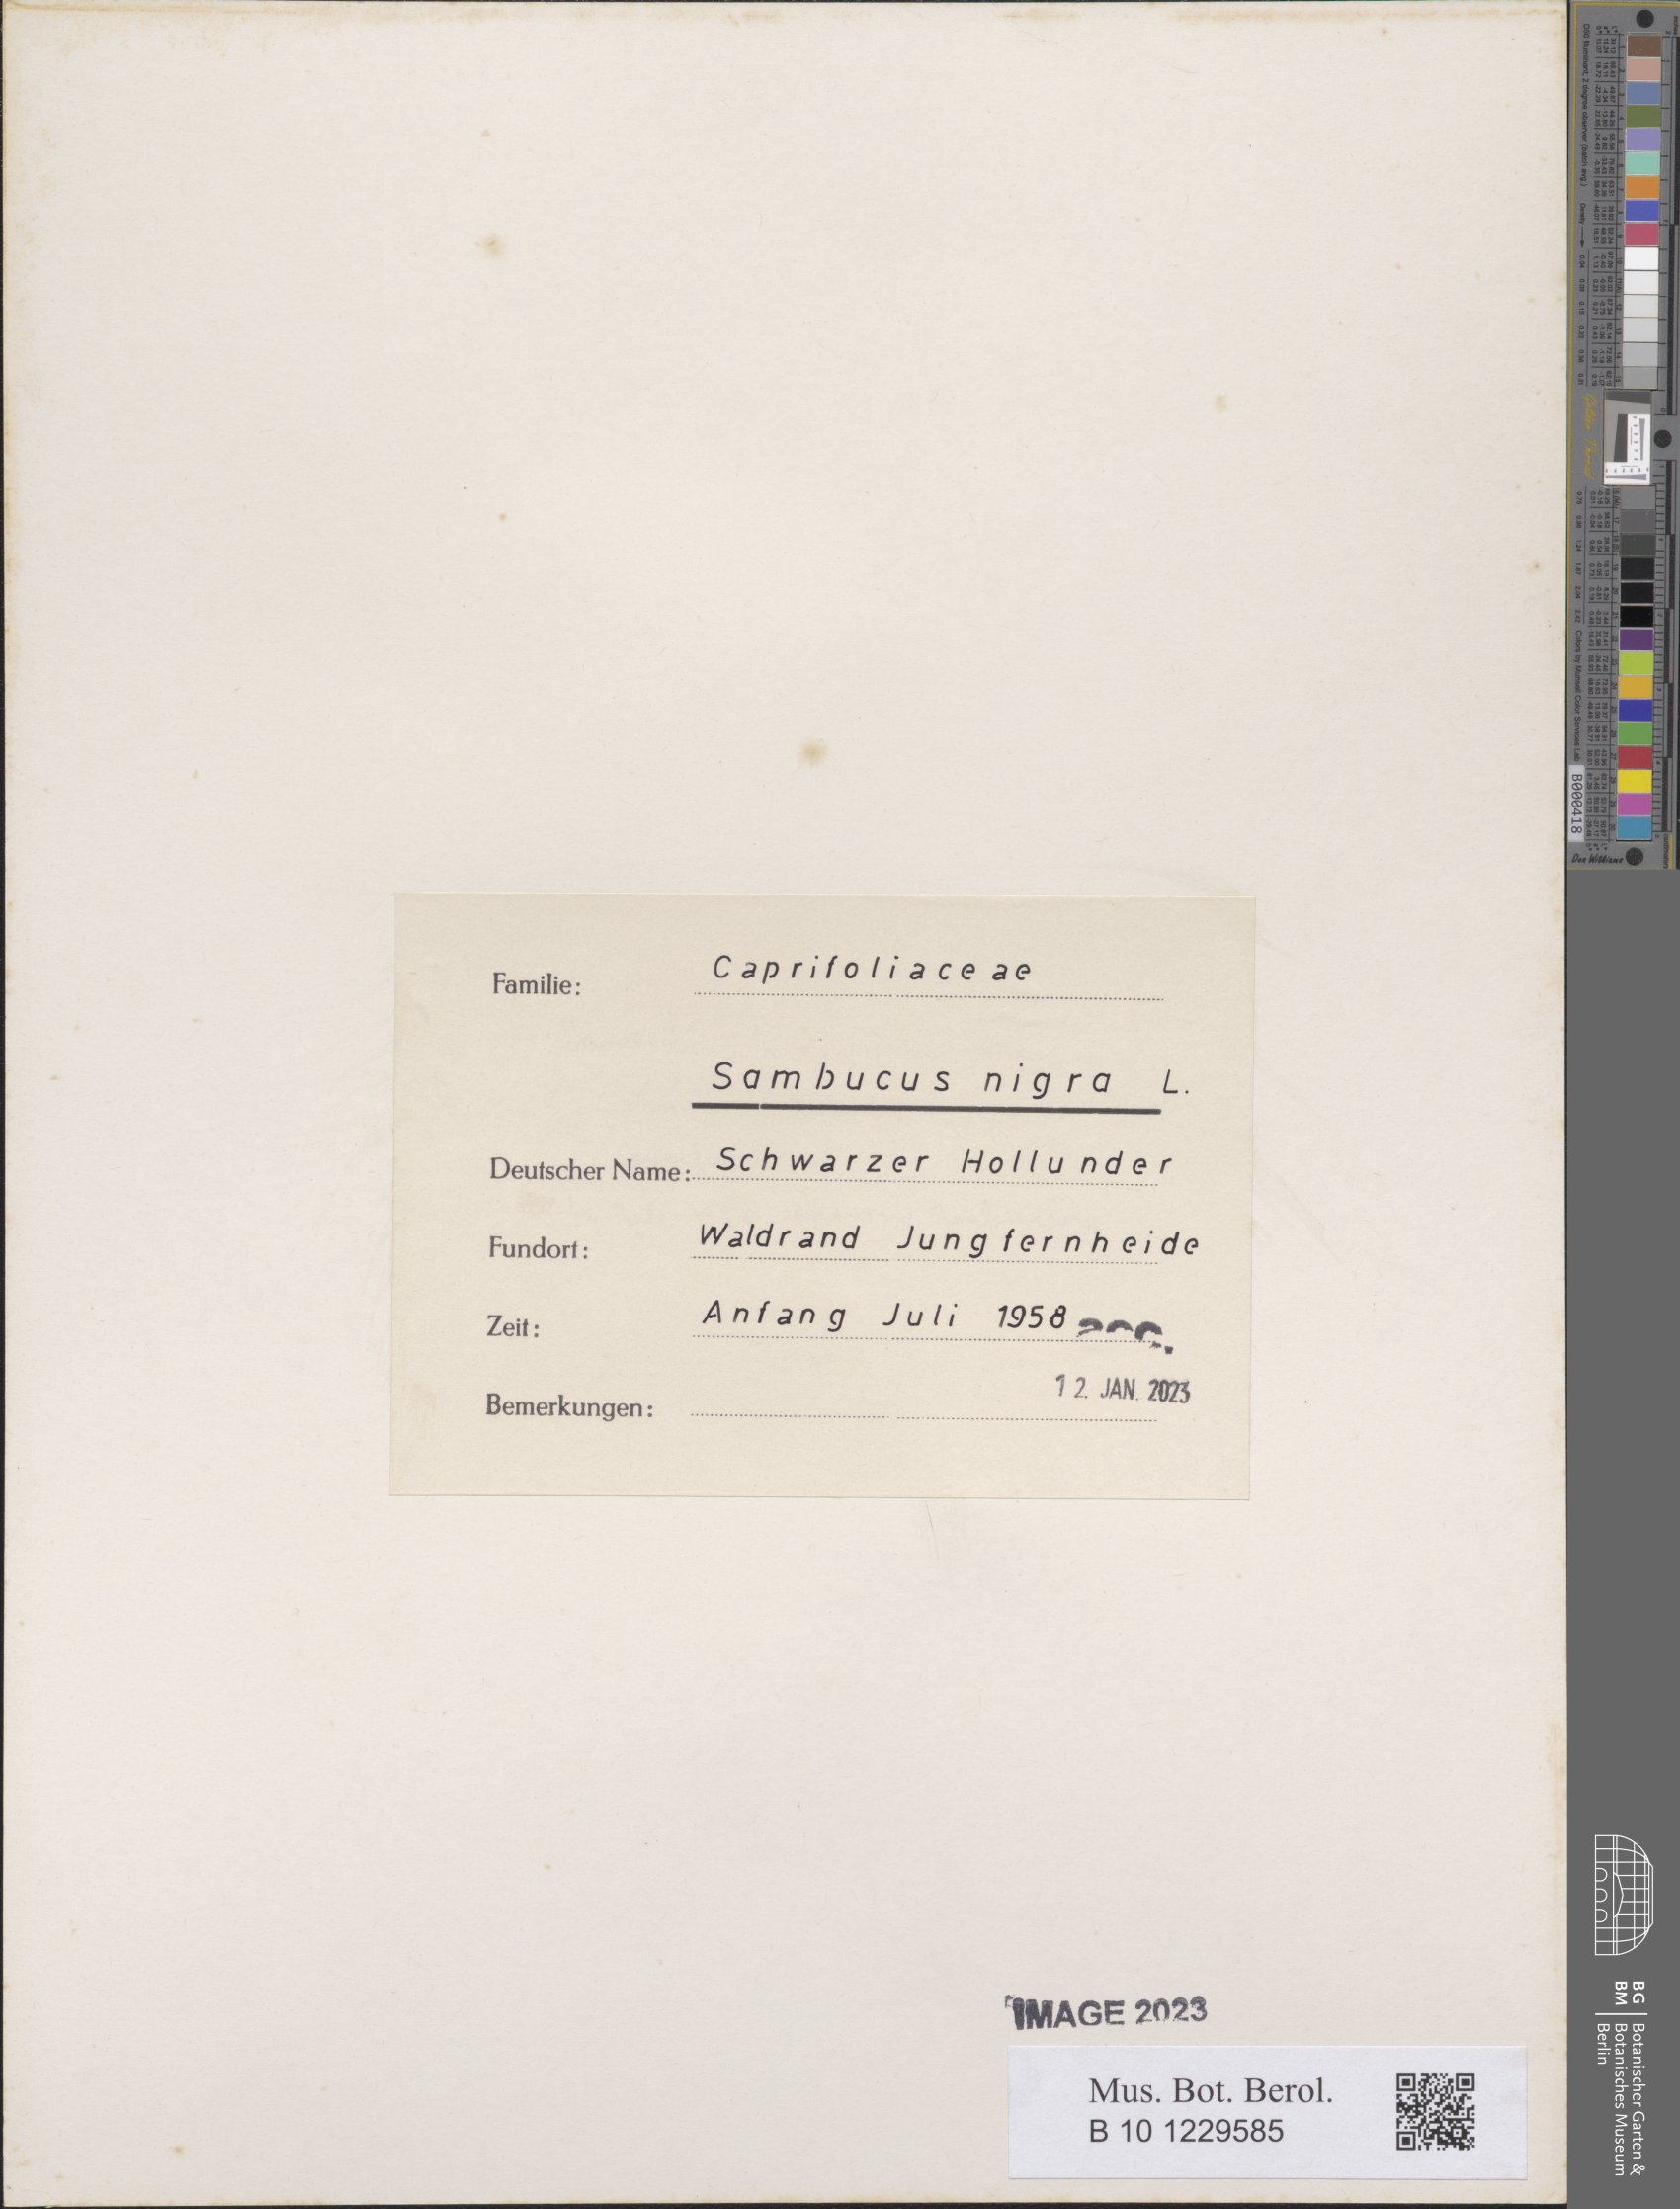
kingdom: Plantae
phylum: Tracheophyta
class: Magnoliopsida
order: Dipsacales
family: Viburnaceae
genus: Sambucus
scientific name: Sambucus nigra
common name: Elder
